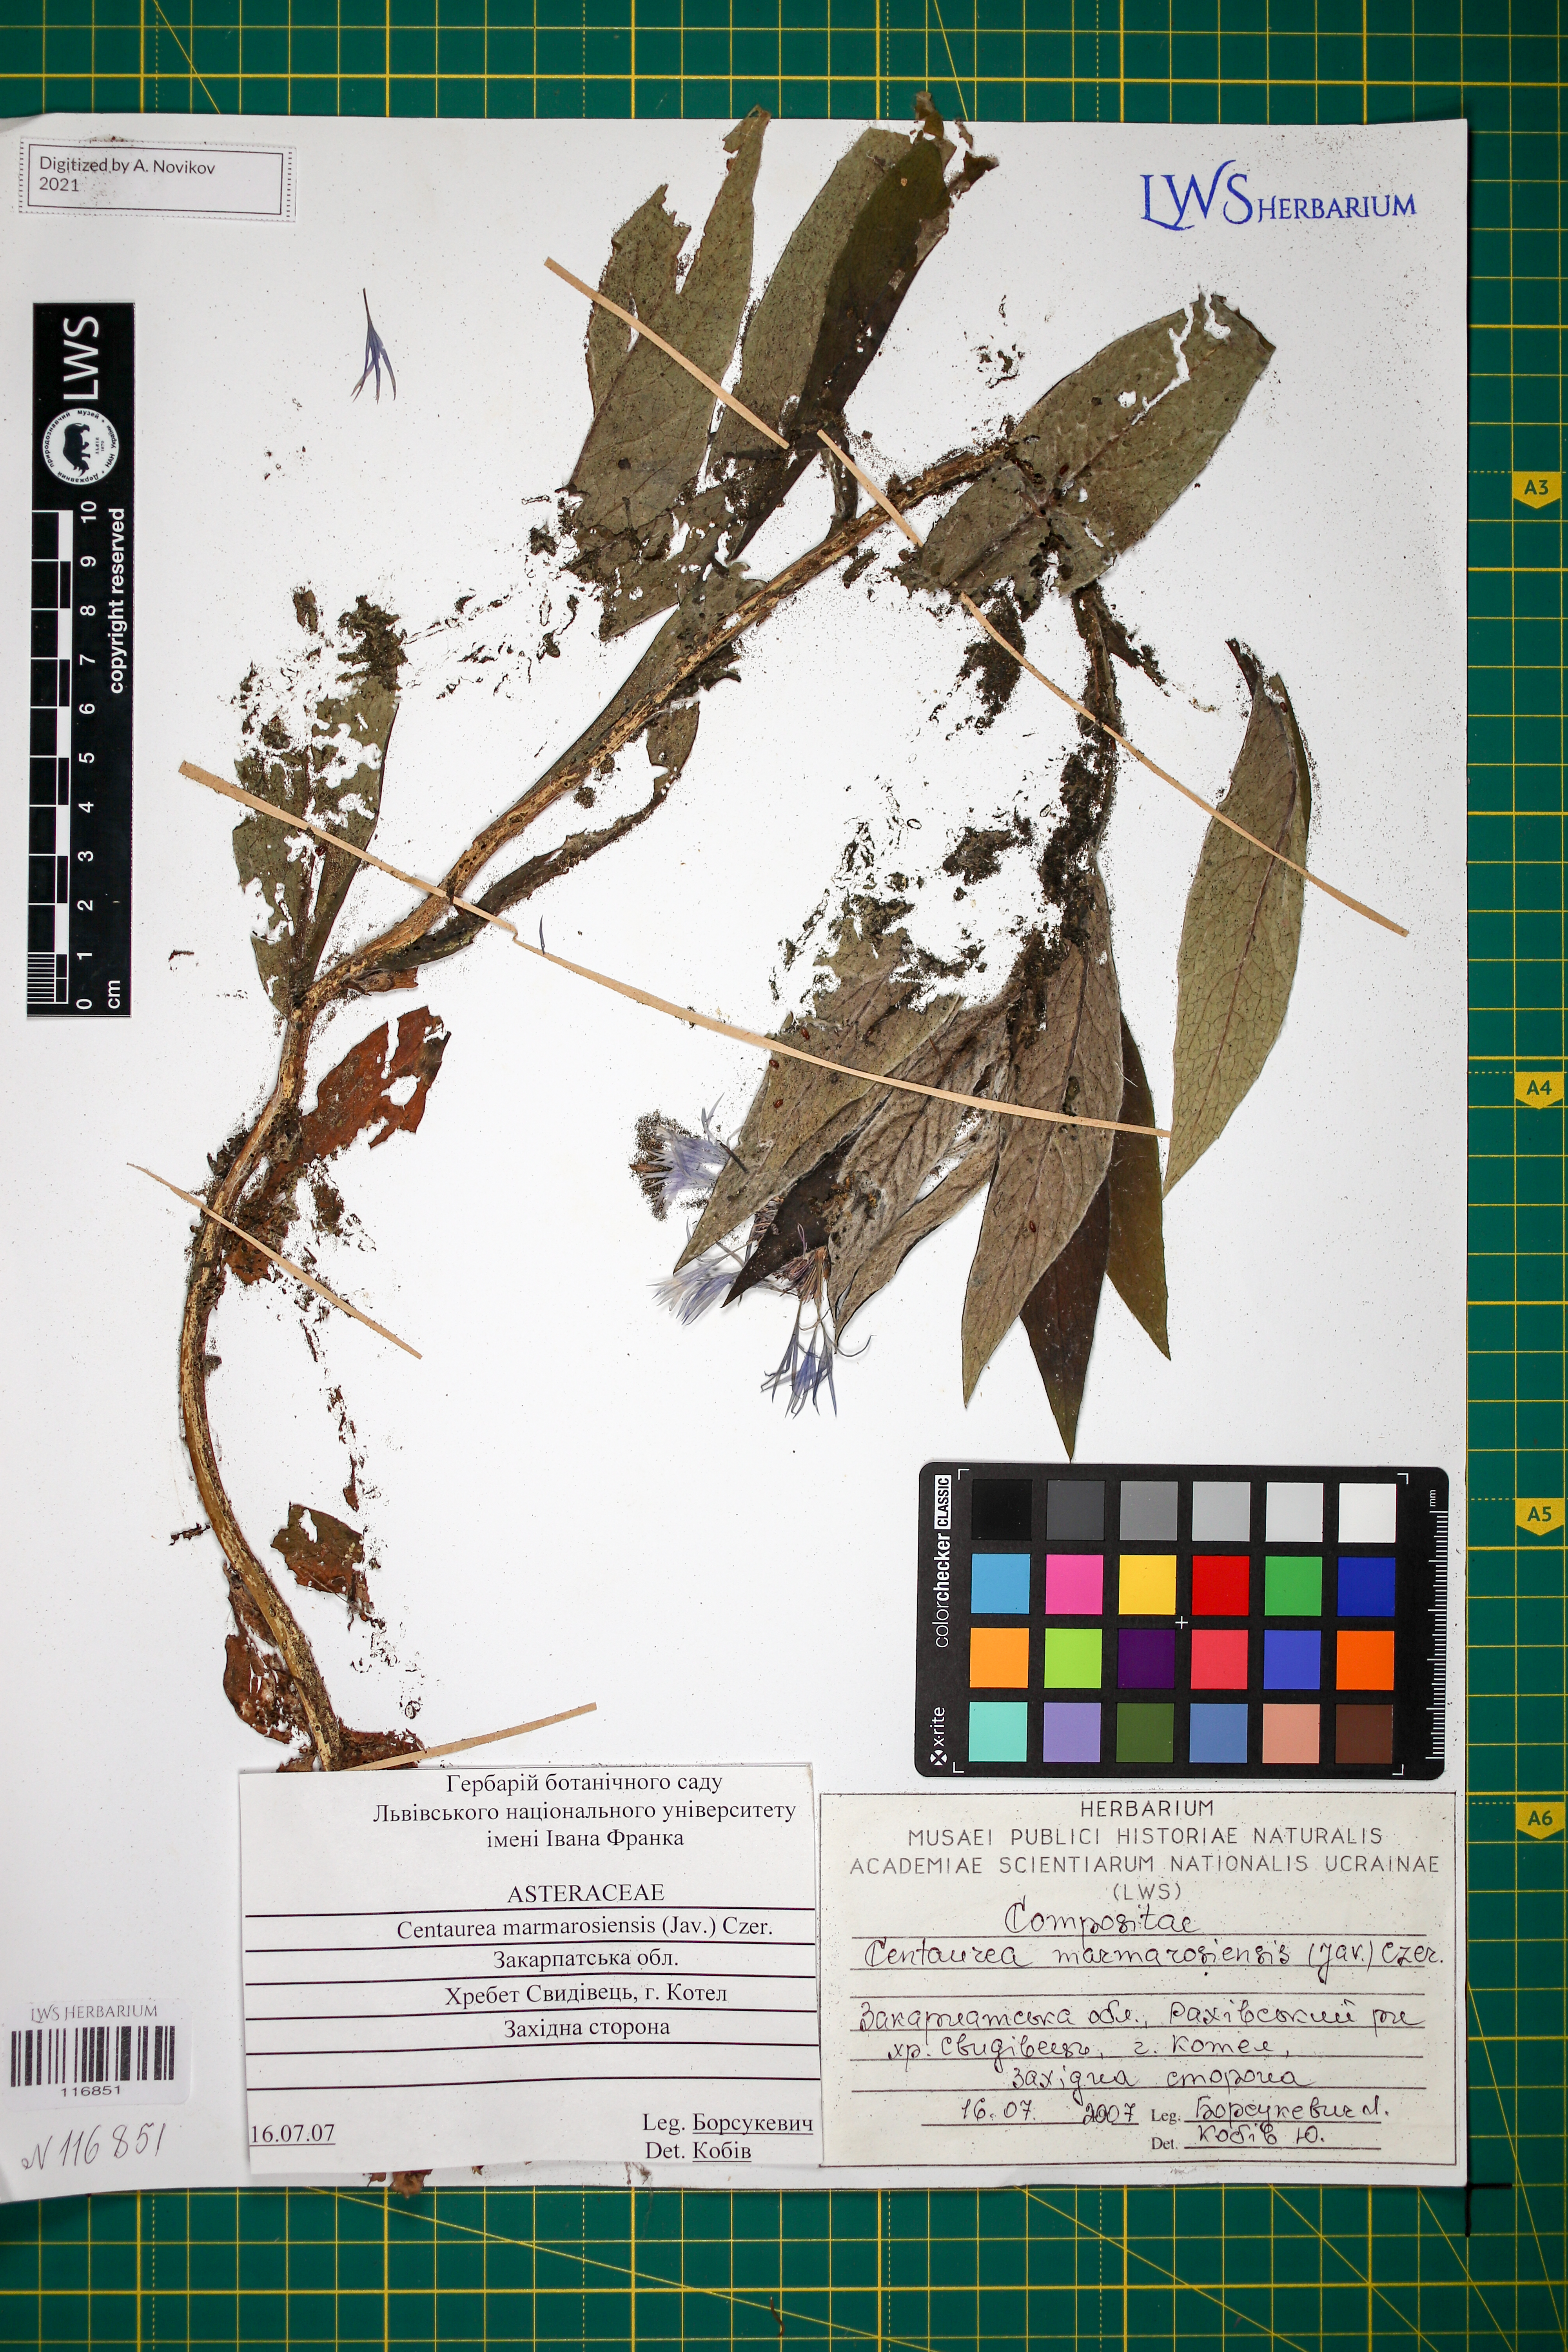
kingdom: Plantae
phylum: Tracheophyta
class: Magnoliopsida
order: Asterales
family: Asteraceae
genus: Centaurea
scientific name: Centaurea maramarosiensis
